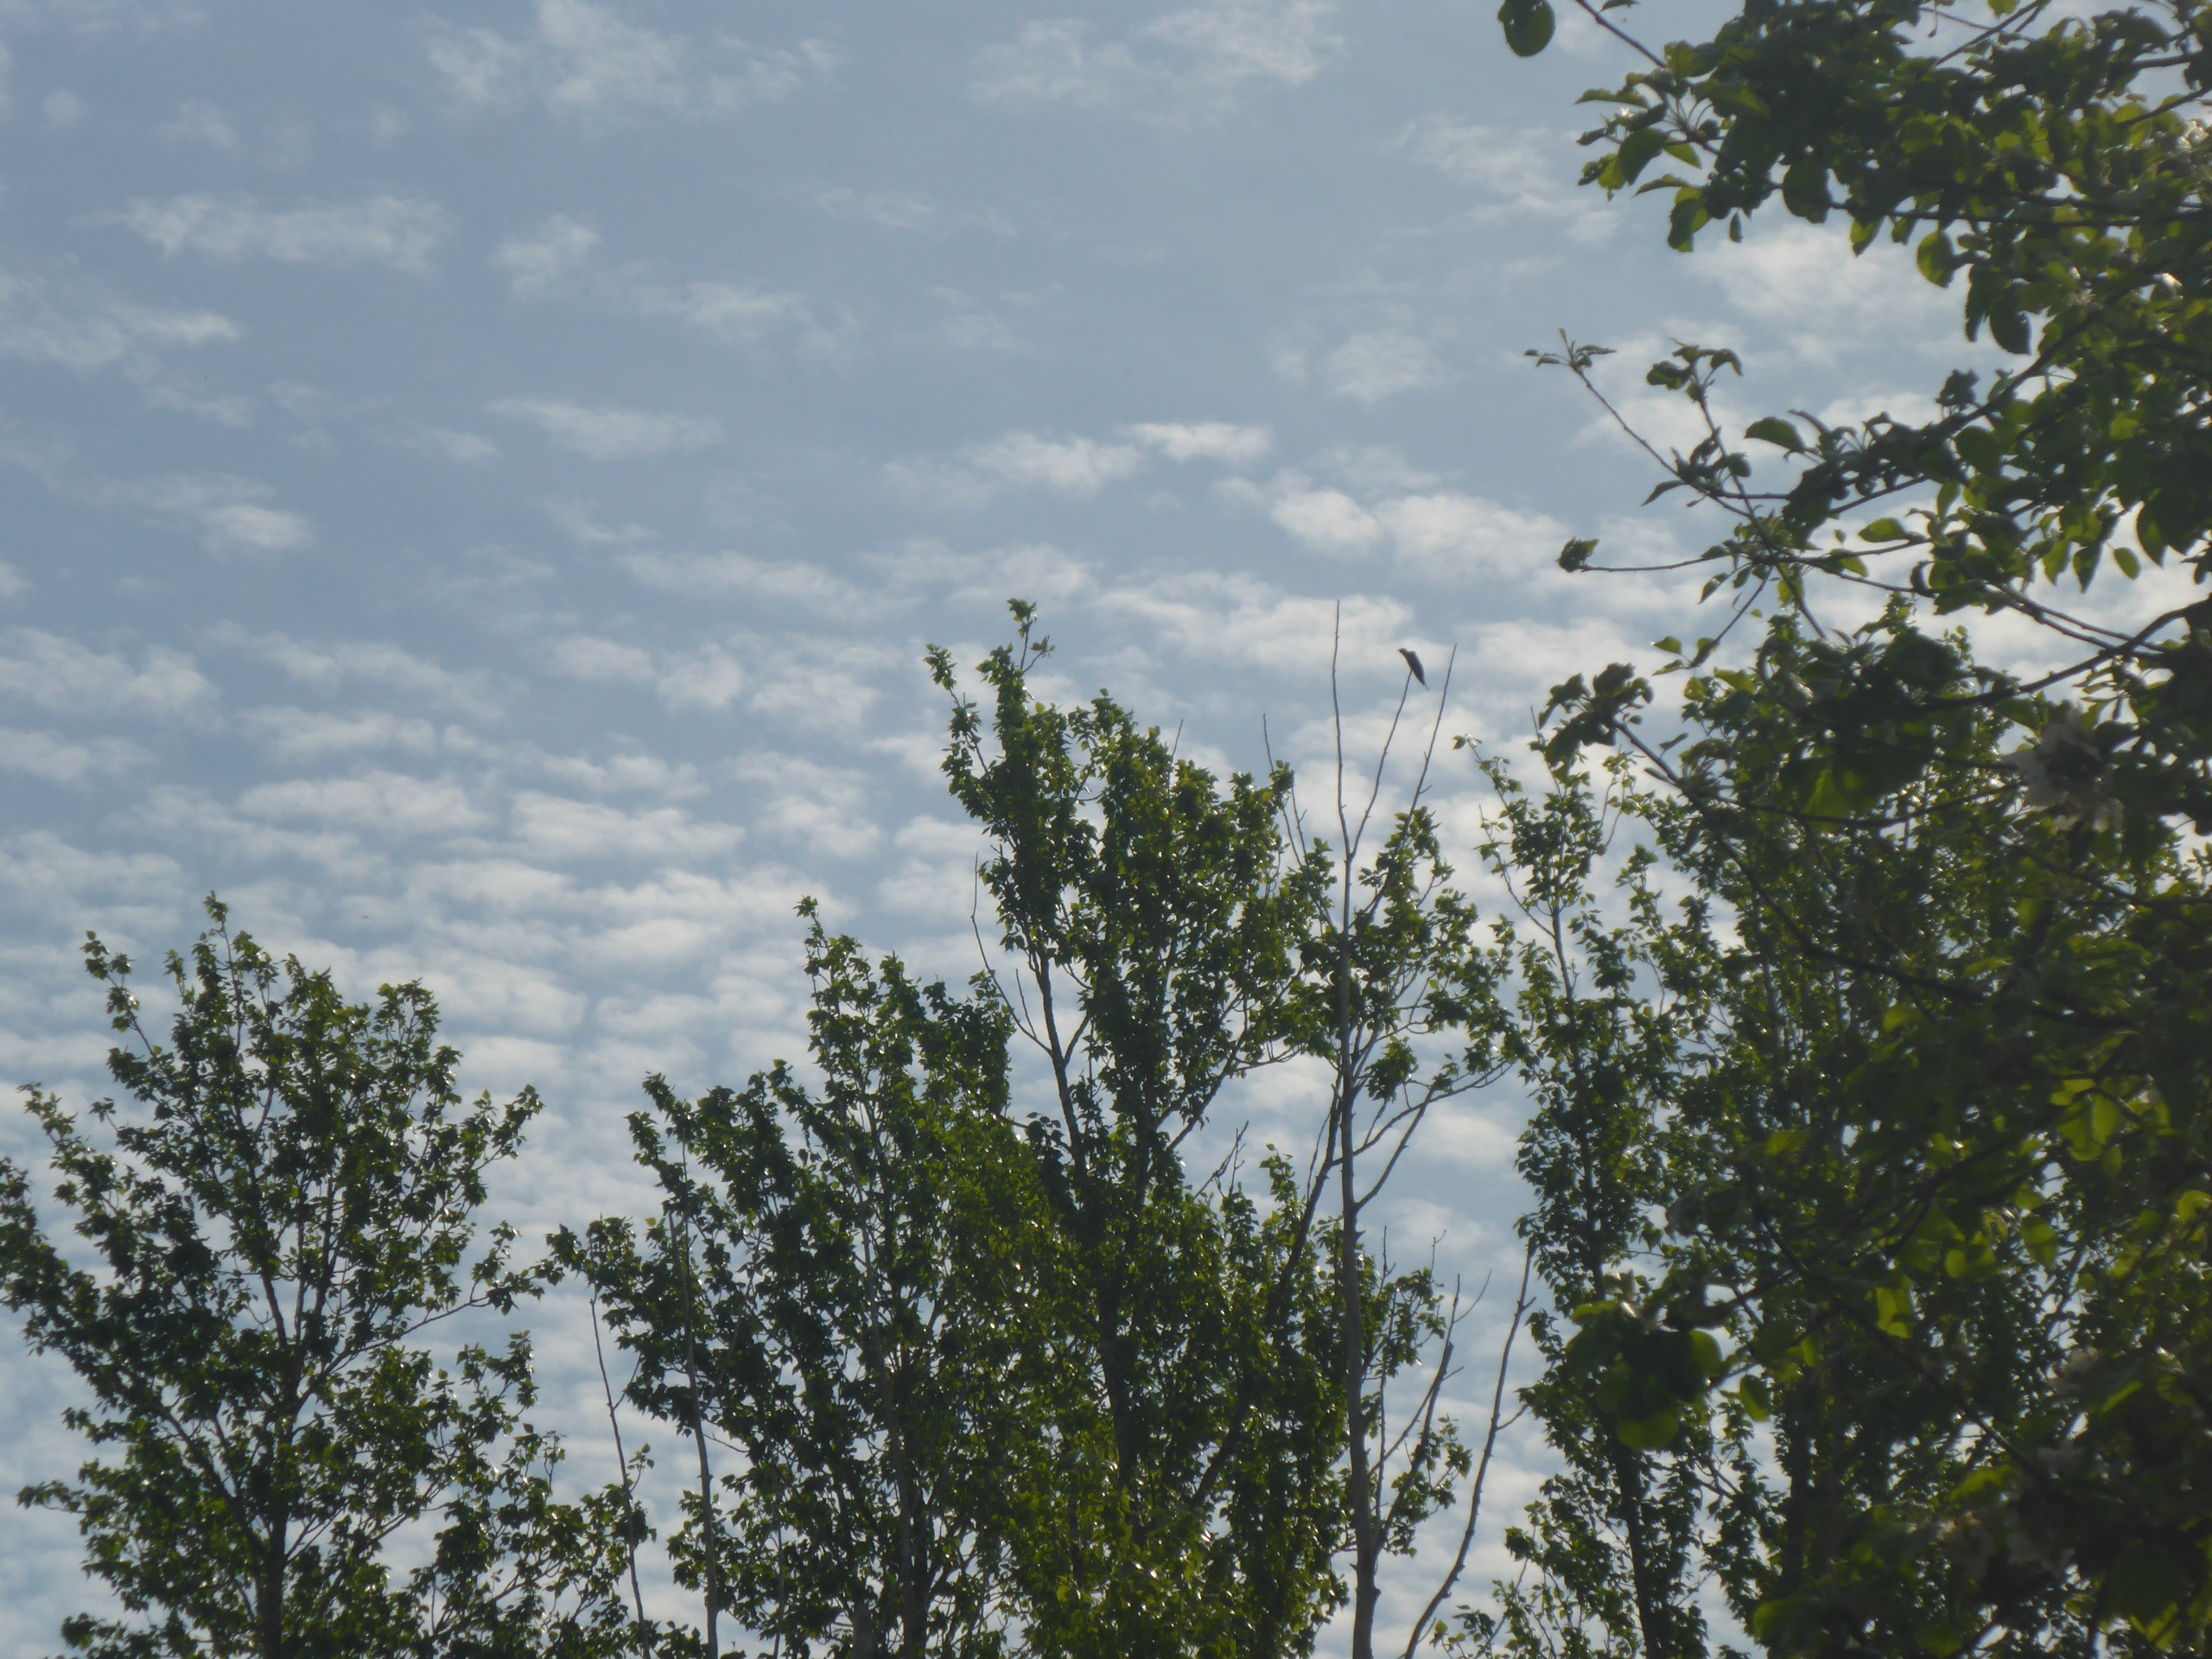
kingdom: Animalia
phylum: Chordata
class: Aves
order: Cuculiformes
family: Cuculidae
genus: Cuculus
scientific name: Cuculus canorus
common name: Gøg
